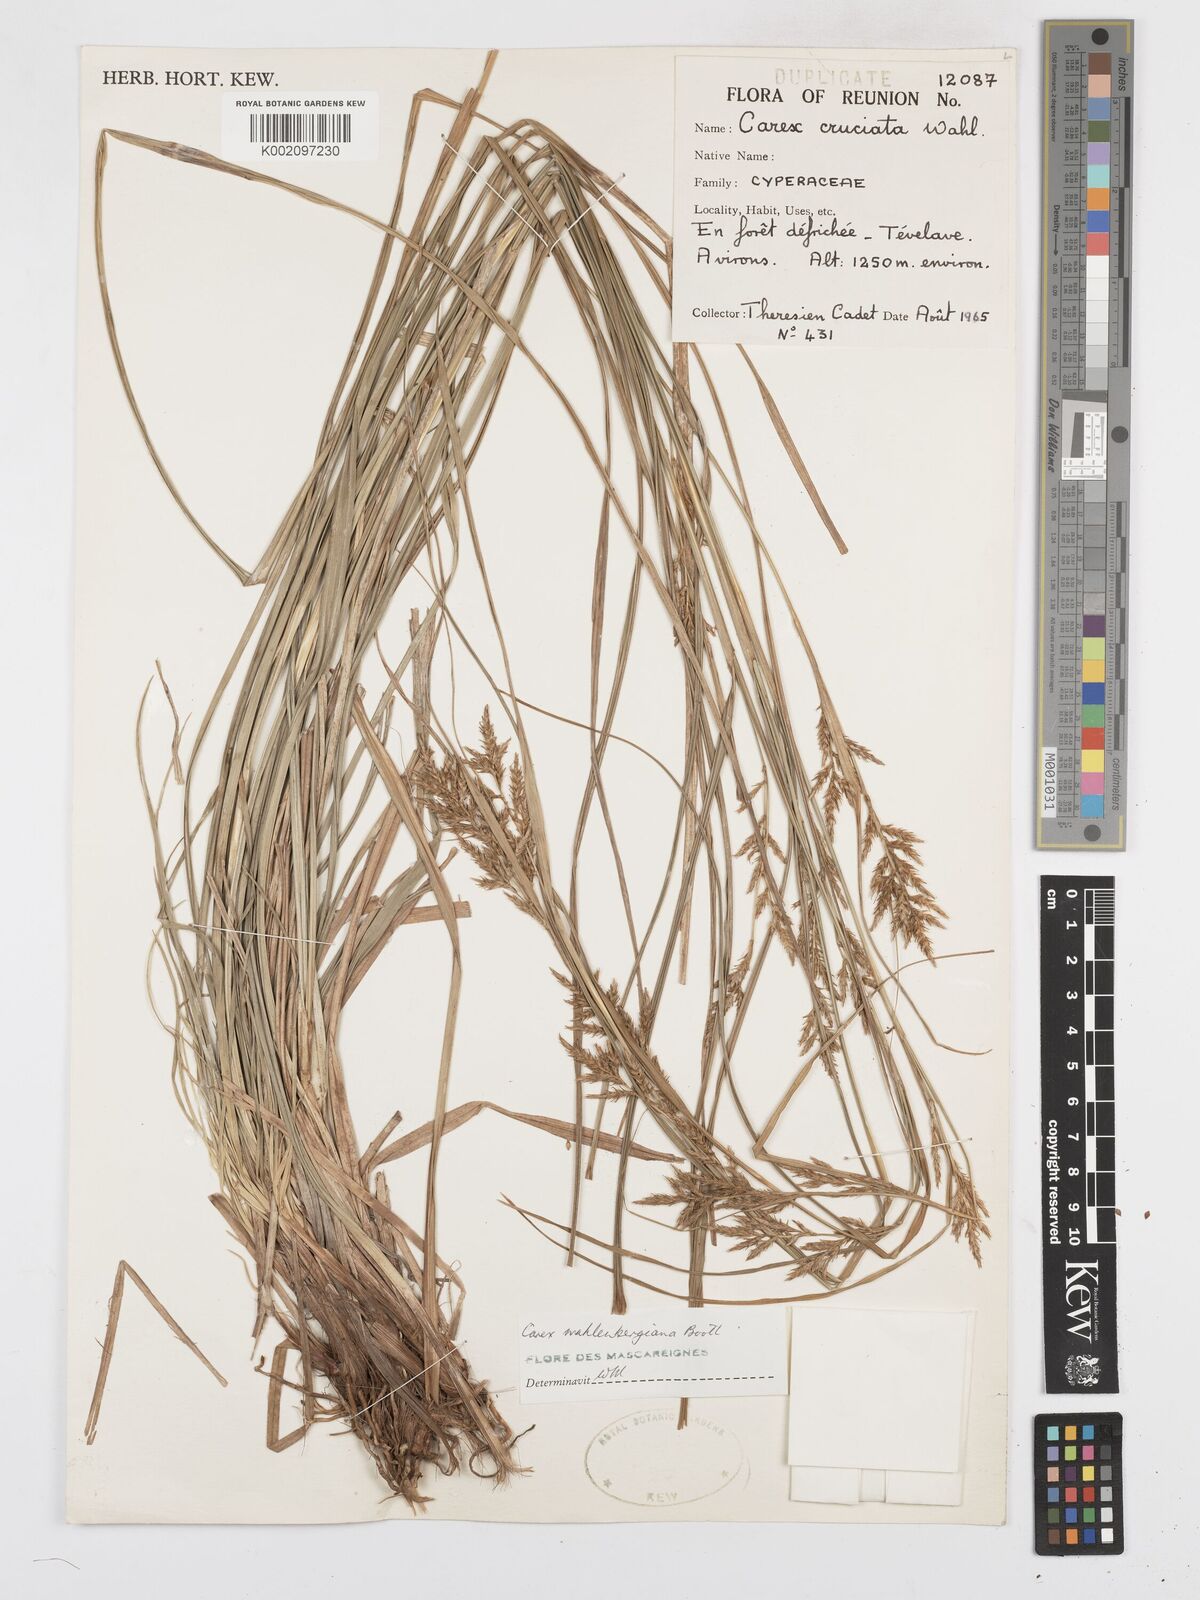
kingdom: Plantae
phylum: Tracheophyta
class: Liliopsida
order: Poales
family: Cyperaceae
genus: Carex
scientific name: Carex wahlenbergiana
